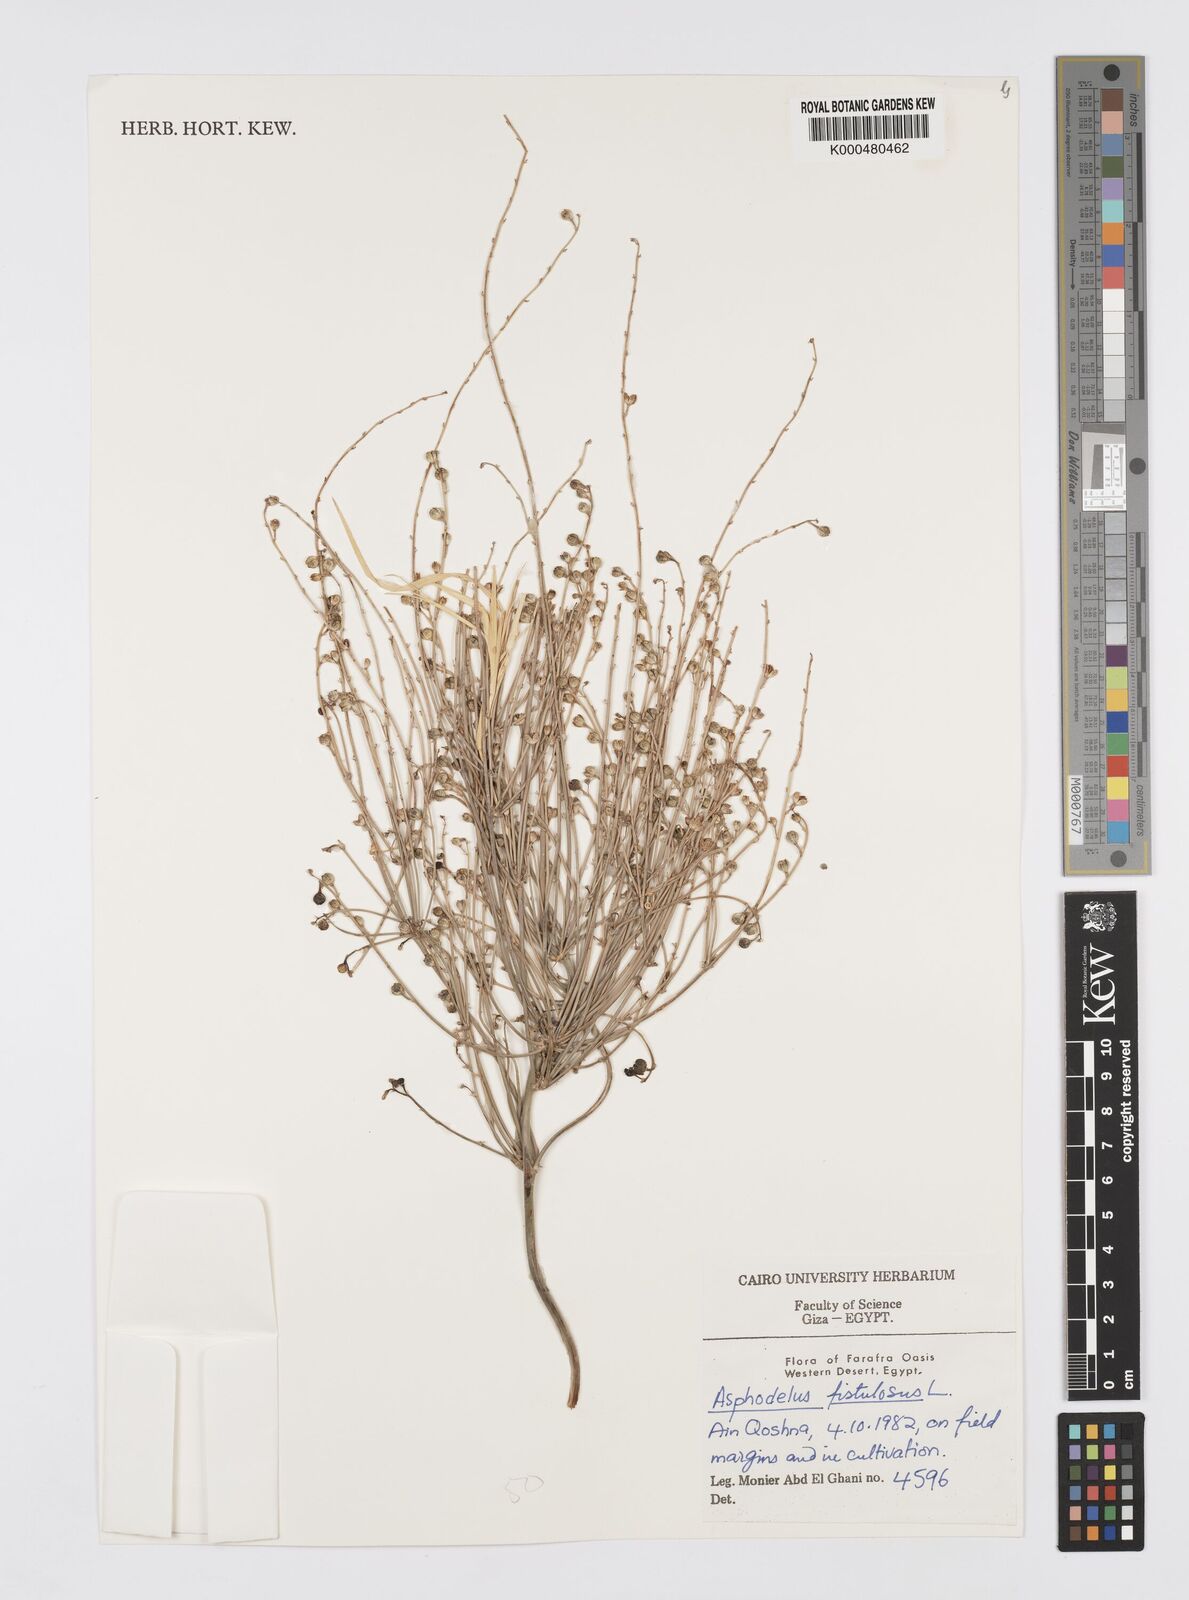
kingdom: Plantae
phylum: Tracheophyta
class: Liliopsida
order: Asparagales
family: Asphodelaceae
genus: Asphodelus
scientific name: Asphodelus fistulosus
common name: Onionweed
